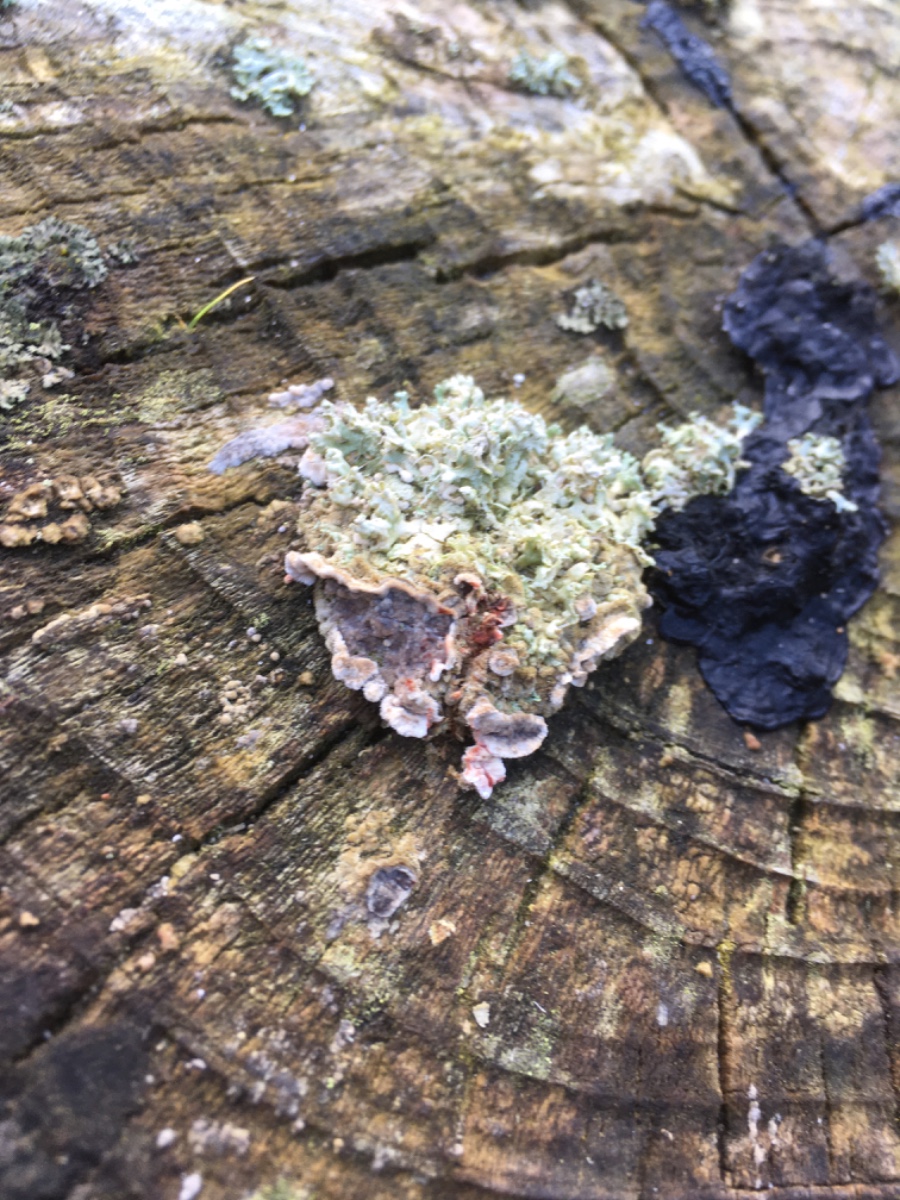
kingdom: Fungi
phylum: Basidiomycota
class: Agaricomycetes
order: Russulales
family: Stereaceae
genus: Stereum
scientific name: Stereum sanguinolentum
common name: blødende lædersvamp
